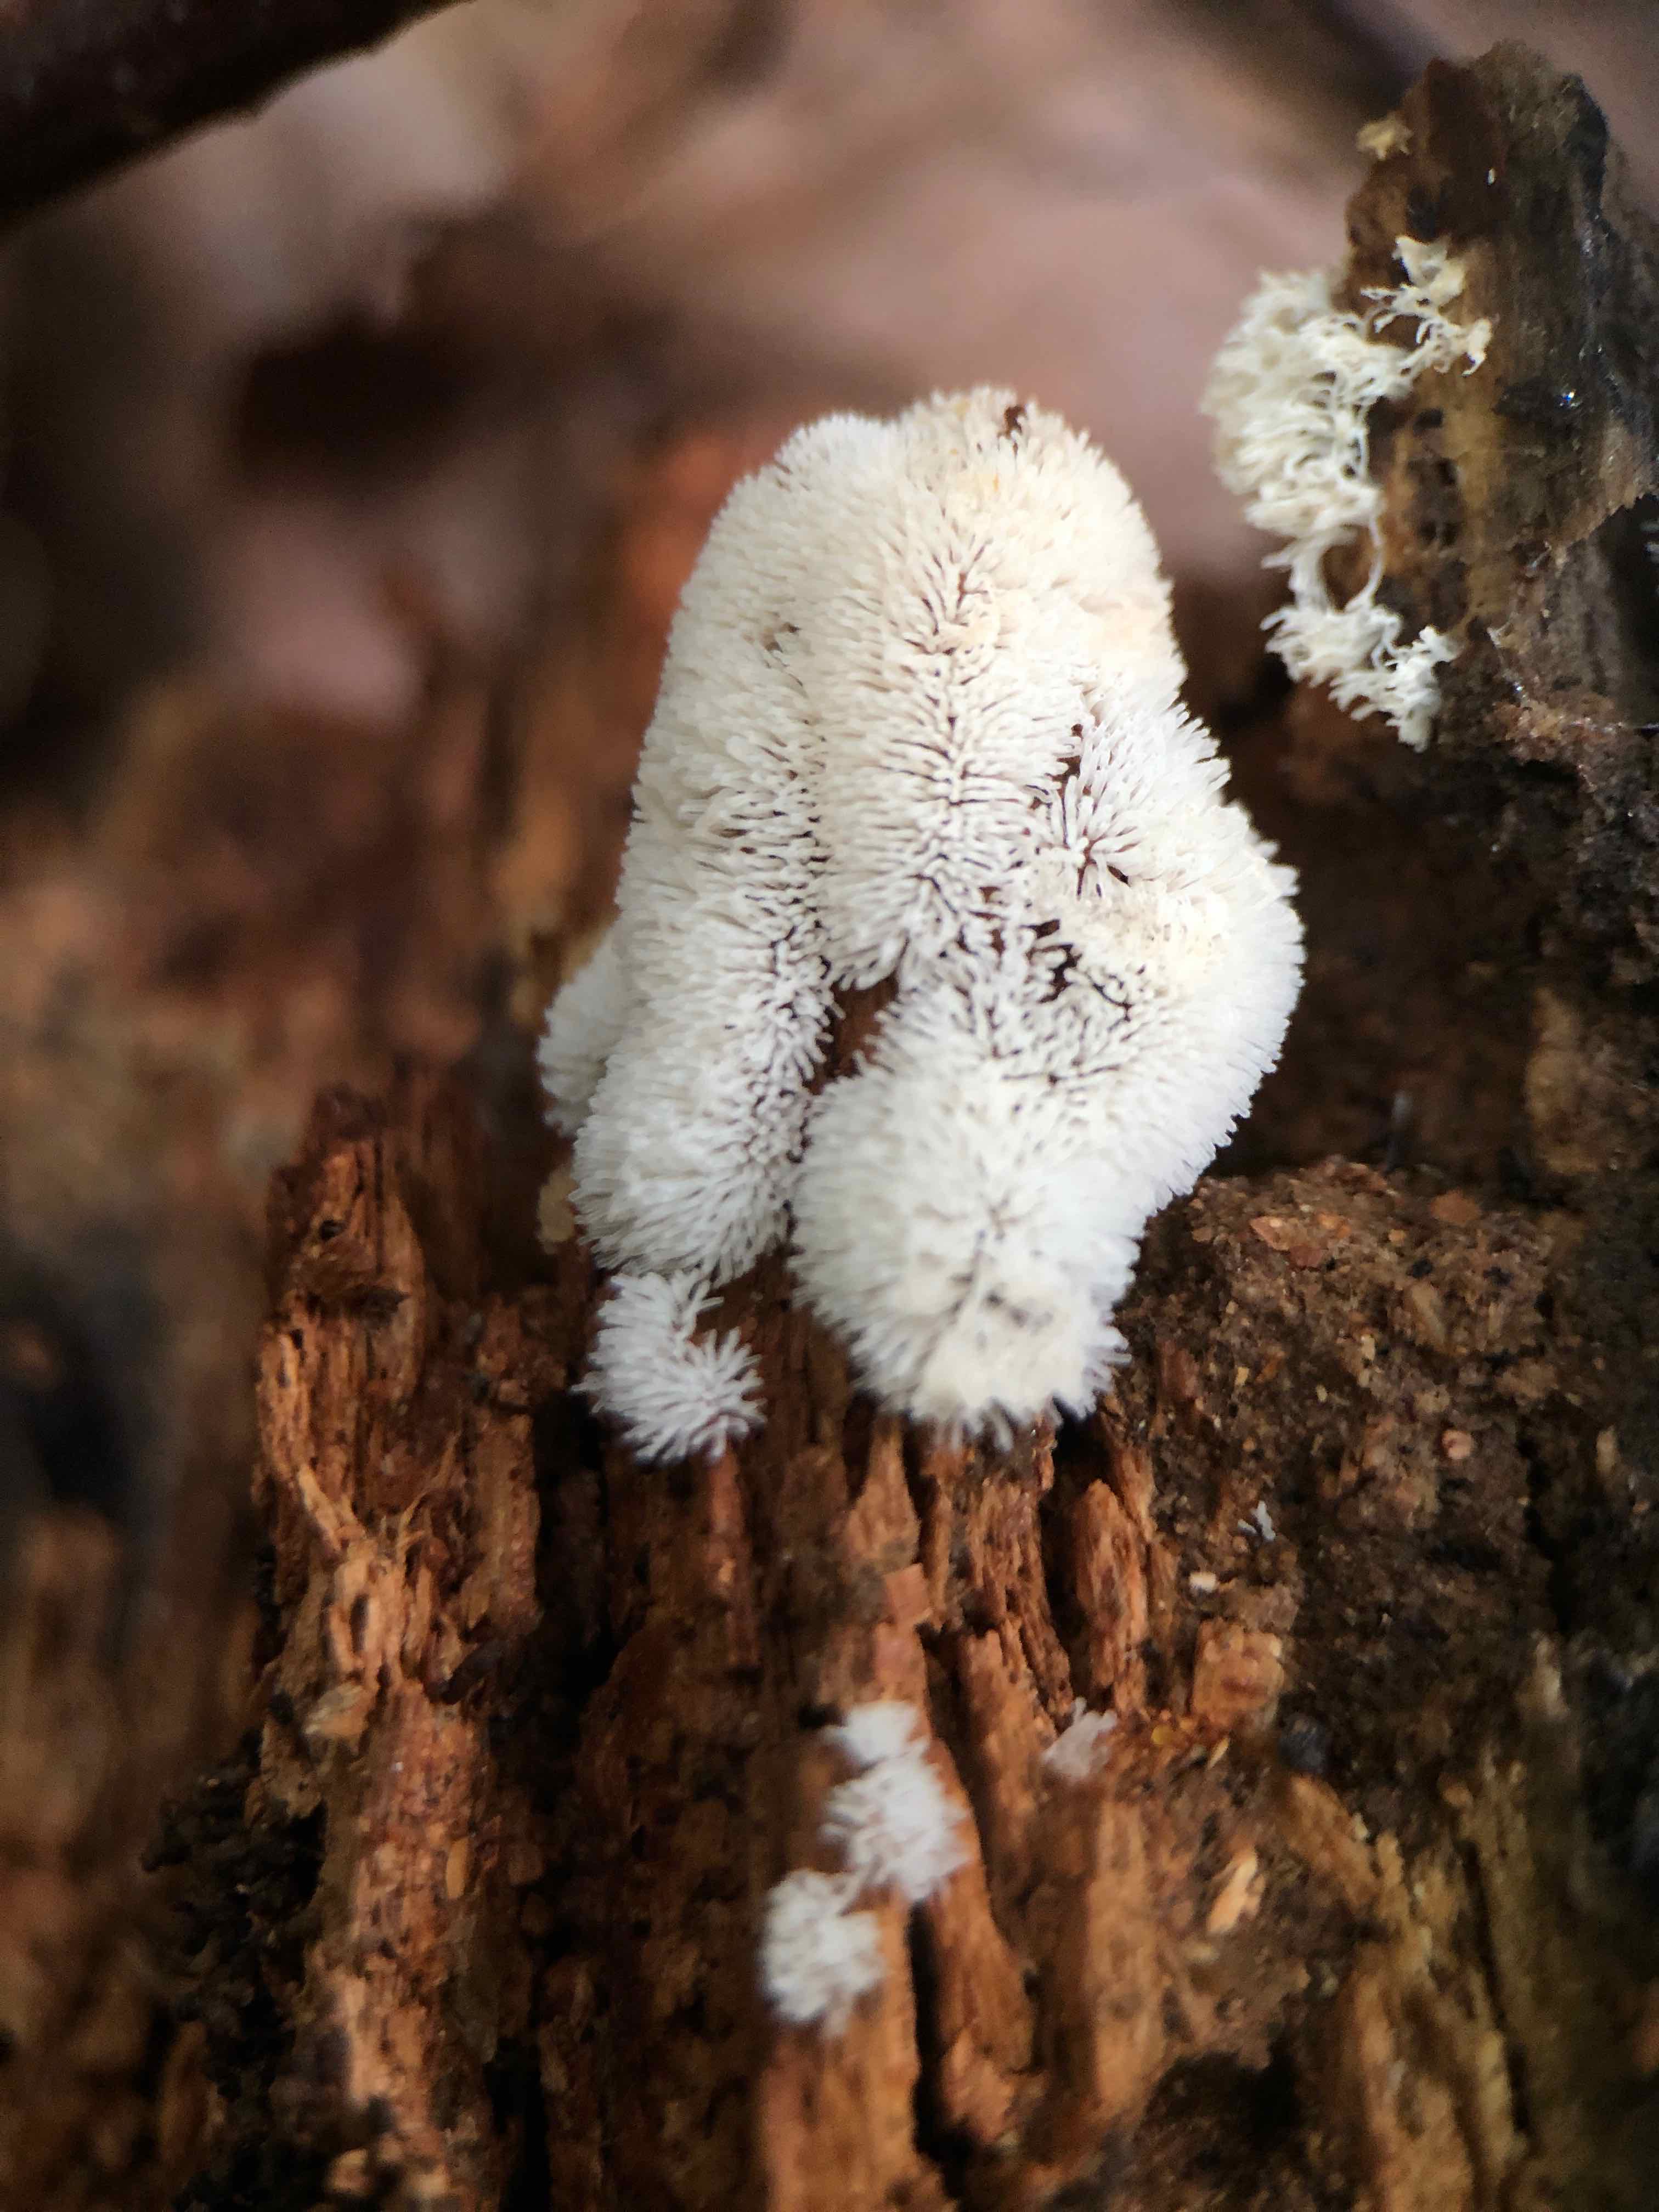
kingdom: Protozoa
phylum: Mycetozoa
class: Protosteliomycetes
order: Ceratiomyxales
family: Ceratiomyxaceae
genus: Ceratiomyxa
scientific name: Ceratiomyxa fruticulosa
